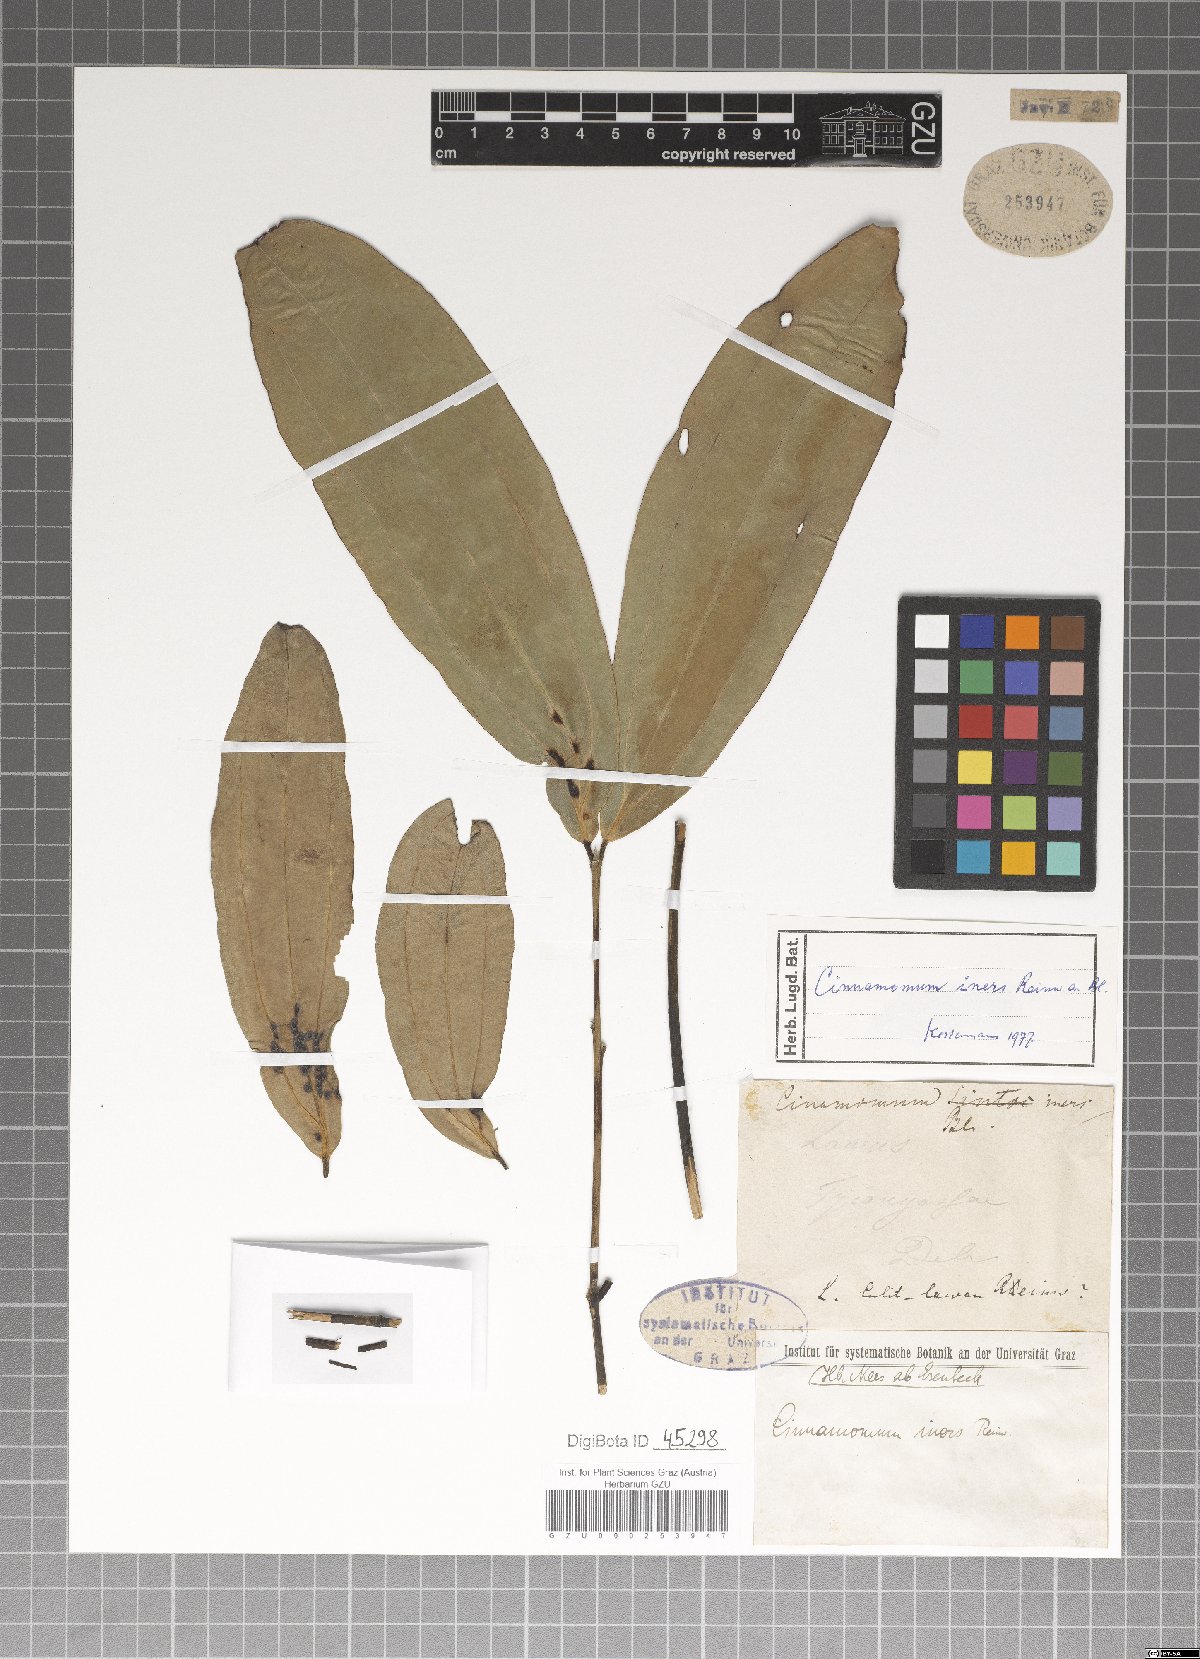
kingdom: Plantae
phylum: Tracheophyta
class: Magnoliopsida
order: Laurales
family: Lauraceae
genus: Cinnamomum
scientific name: Cinnamomum iners
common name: Wild cinnamon
